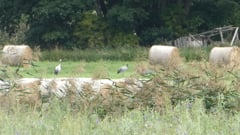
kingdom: Animalia
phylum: Chordata
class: Aves
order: Gruiformes
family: Gruidae
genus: Grus
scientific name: Grus grus
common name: Common crane
